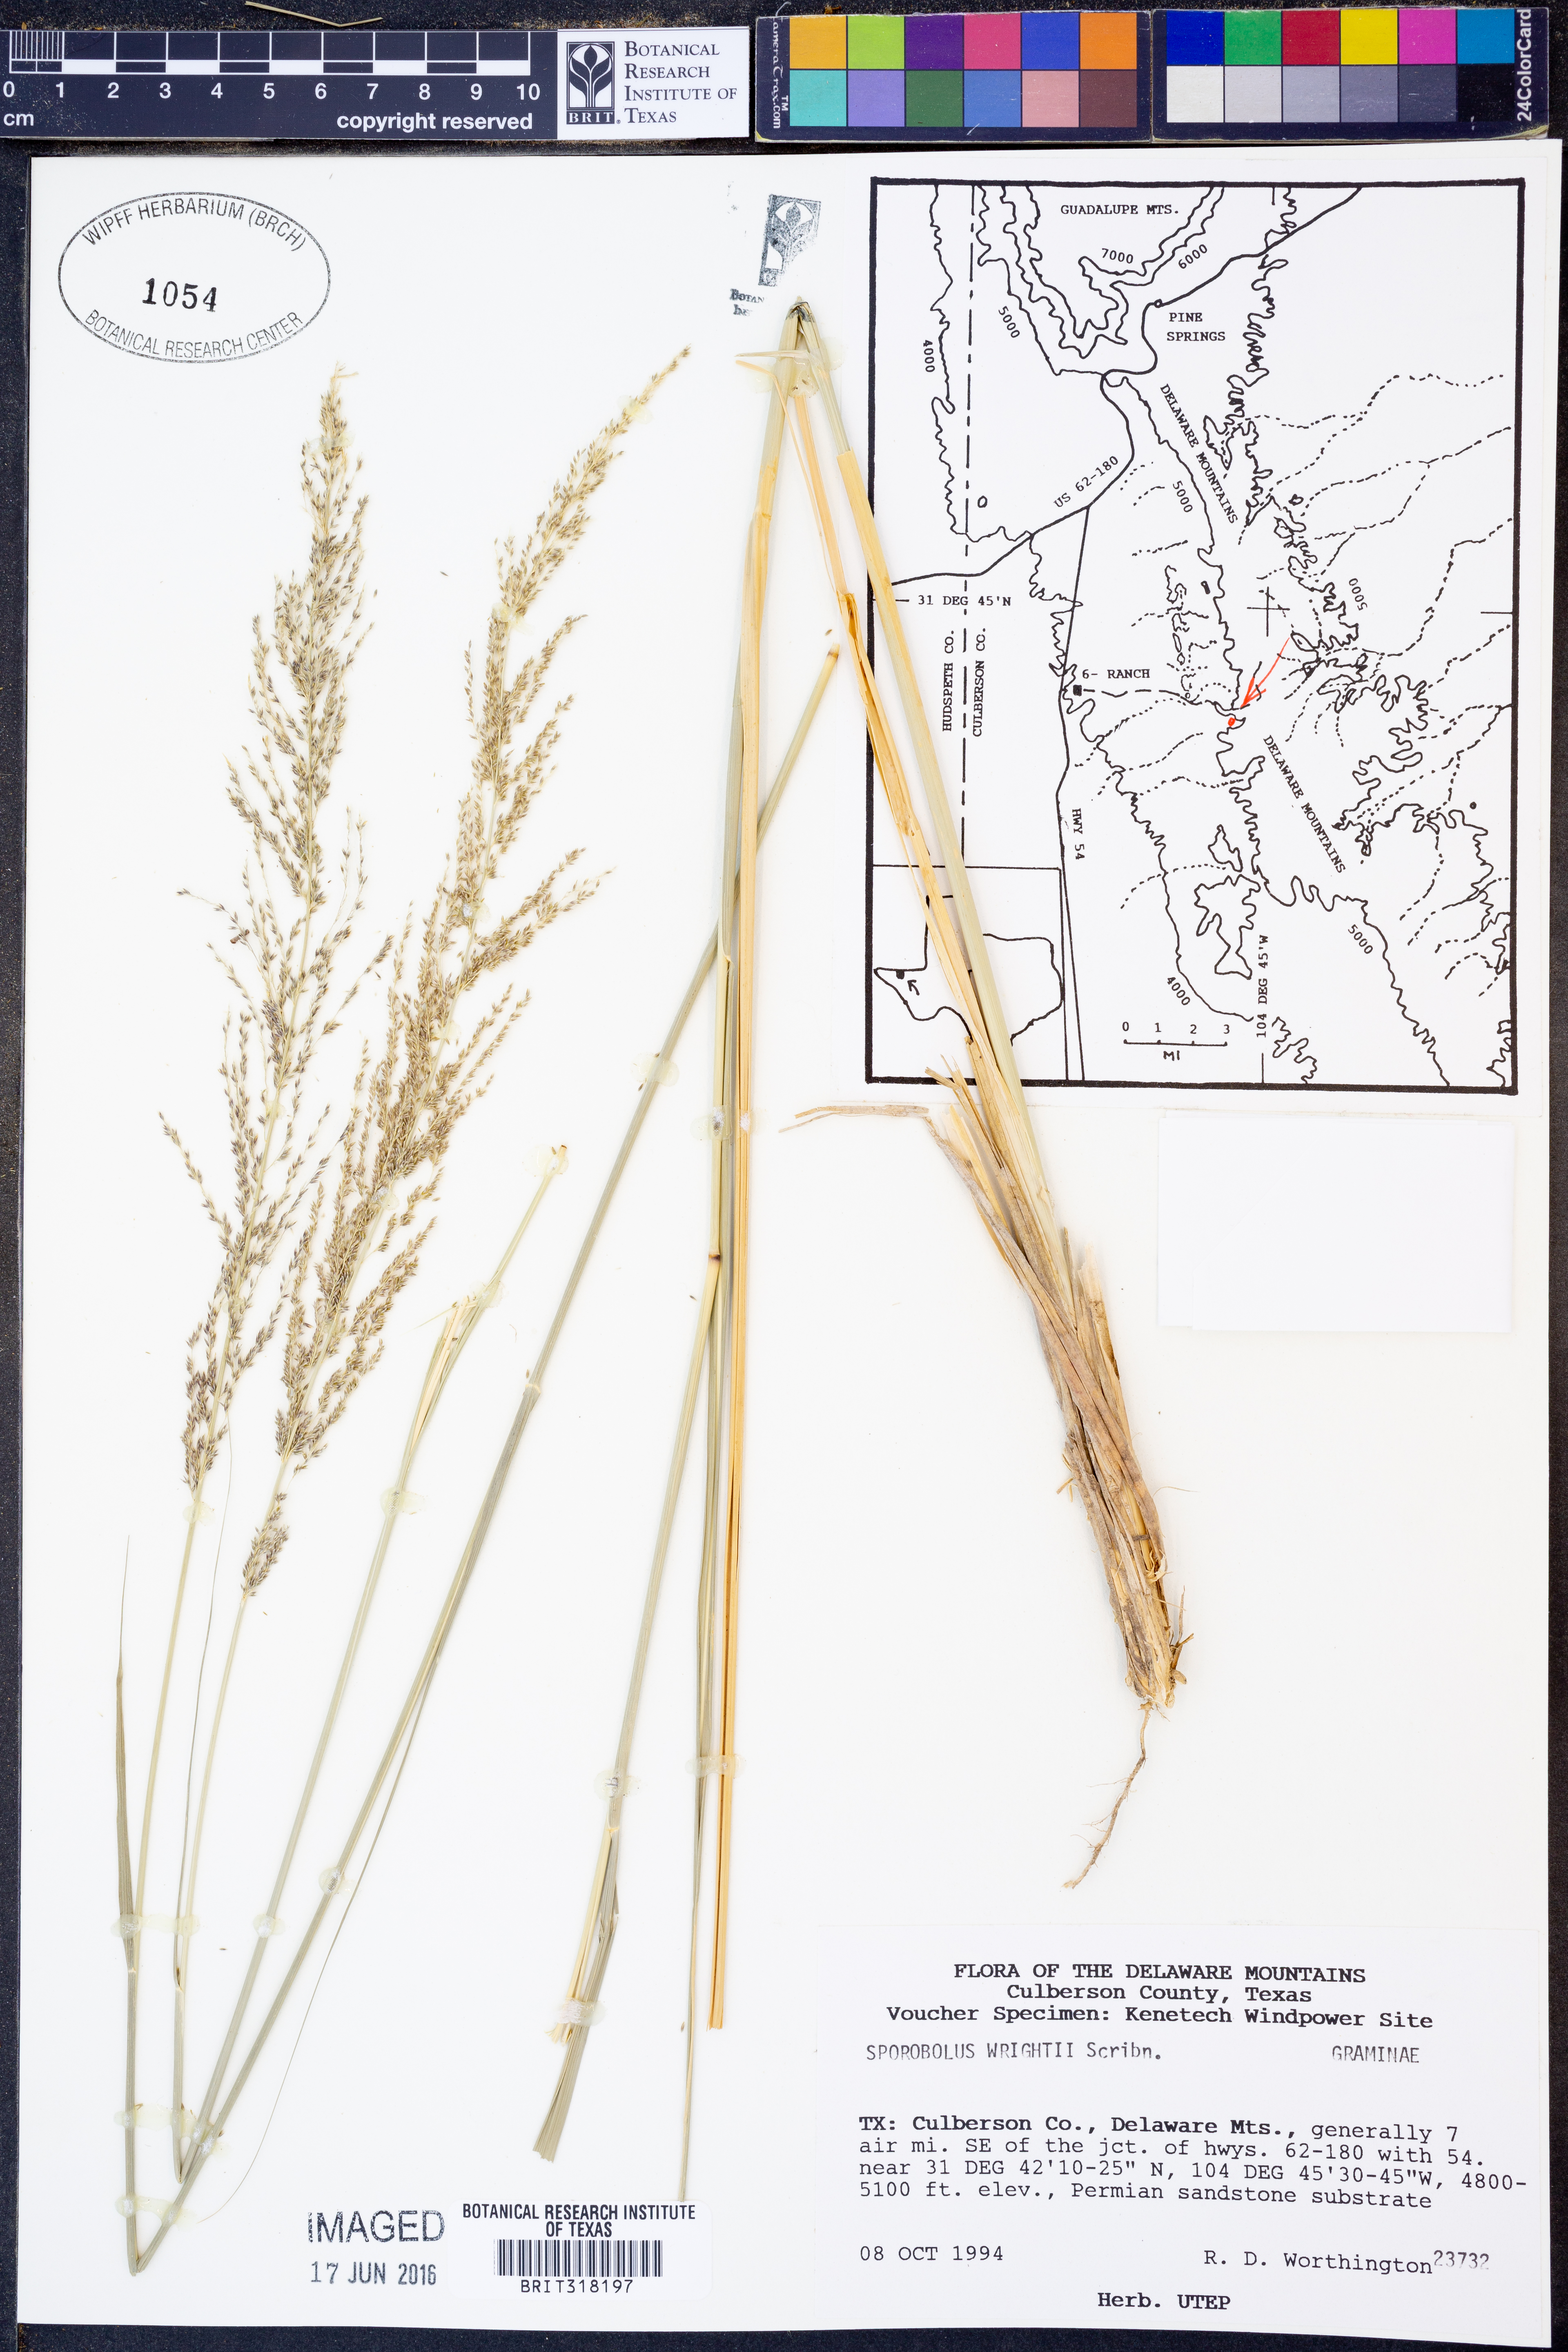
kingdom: Plantae
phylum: Tracheophyta
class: Liliopsida
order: Poales
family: Poaceae
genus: Sporobolus
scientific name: Sporobolus wrightii
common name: Big alkali sacaton
